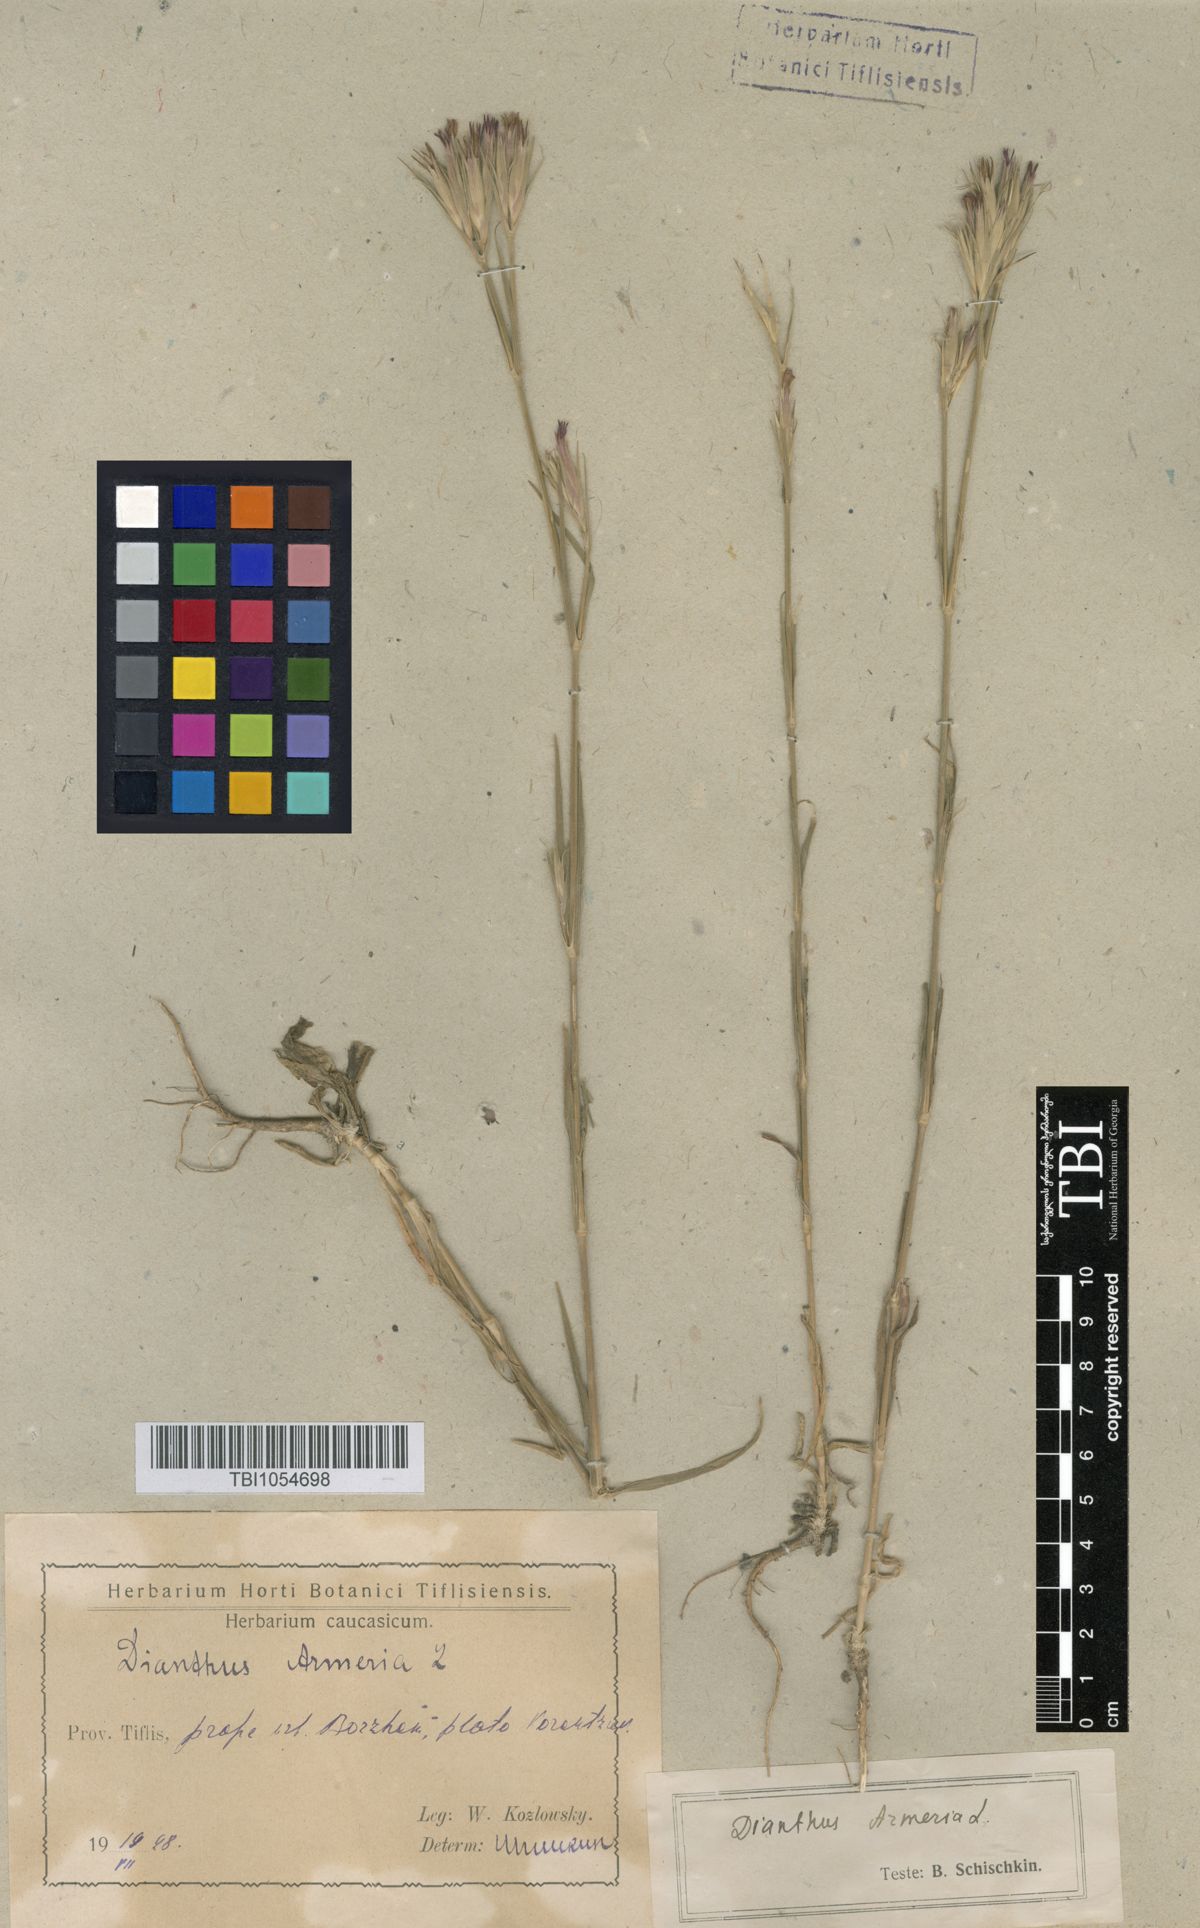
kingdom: Plantae
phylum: Tracheophyta
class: Magnoliopsida
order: Caryophyllales
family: Caryophyllaceae
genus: Dianthus
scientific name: Dianthus armeria
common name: Deptford pink
